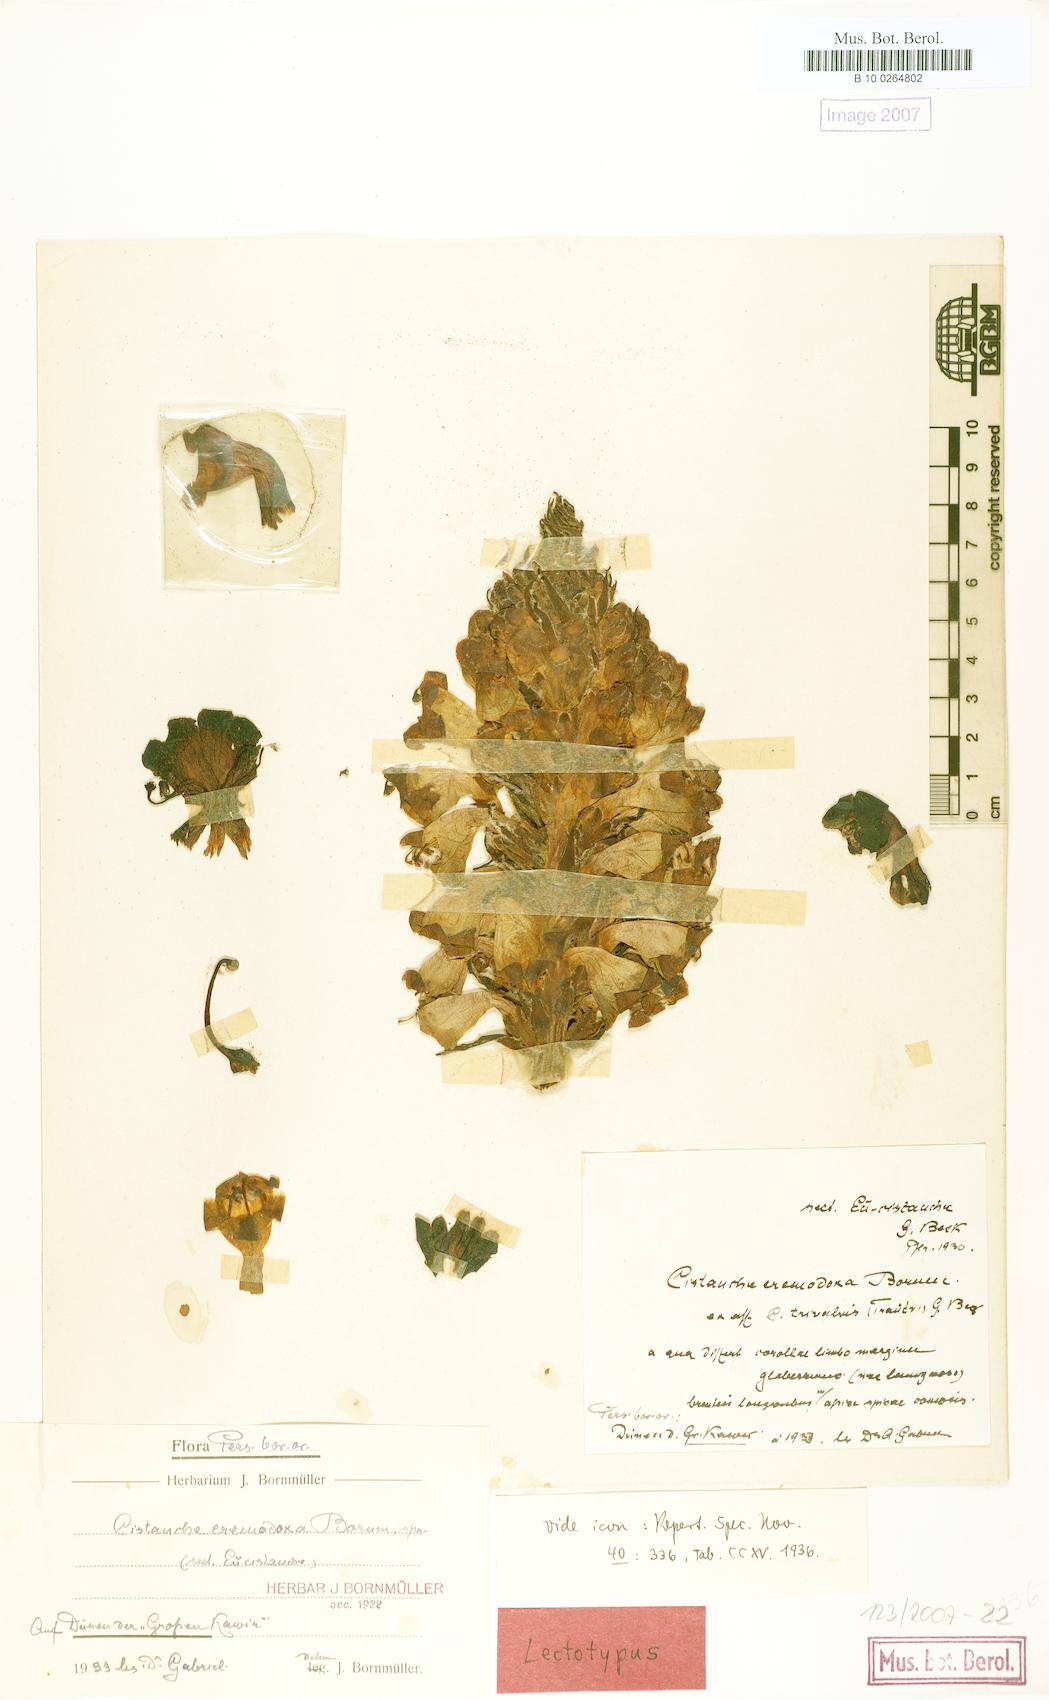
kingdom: Plantae
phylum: Tracheophyta
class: Magnoliopsida
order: Lamiales
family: Orobanchaceae
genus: Cistanche
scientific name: Cistanche ambigua
